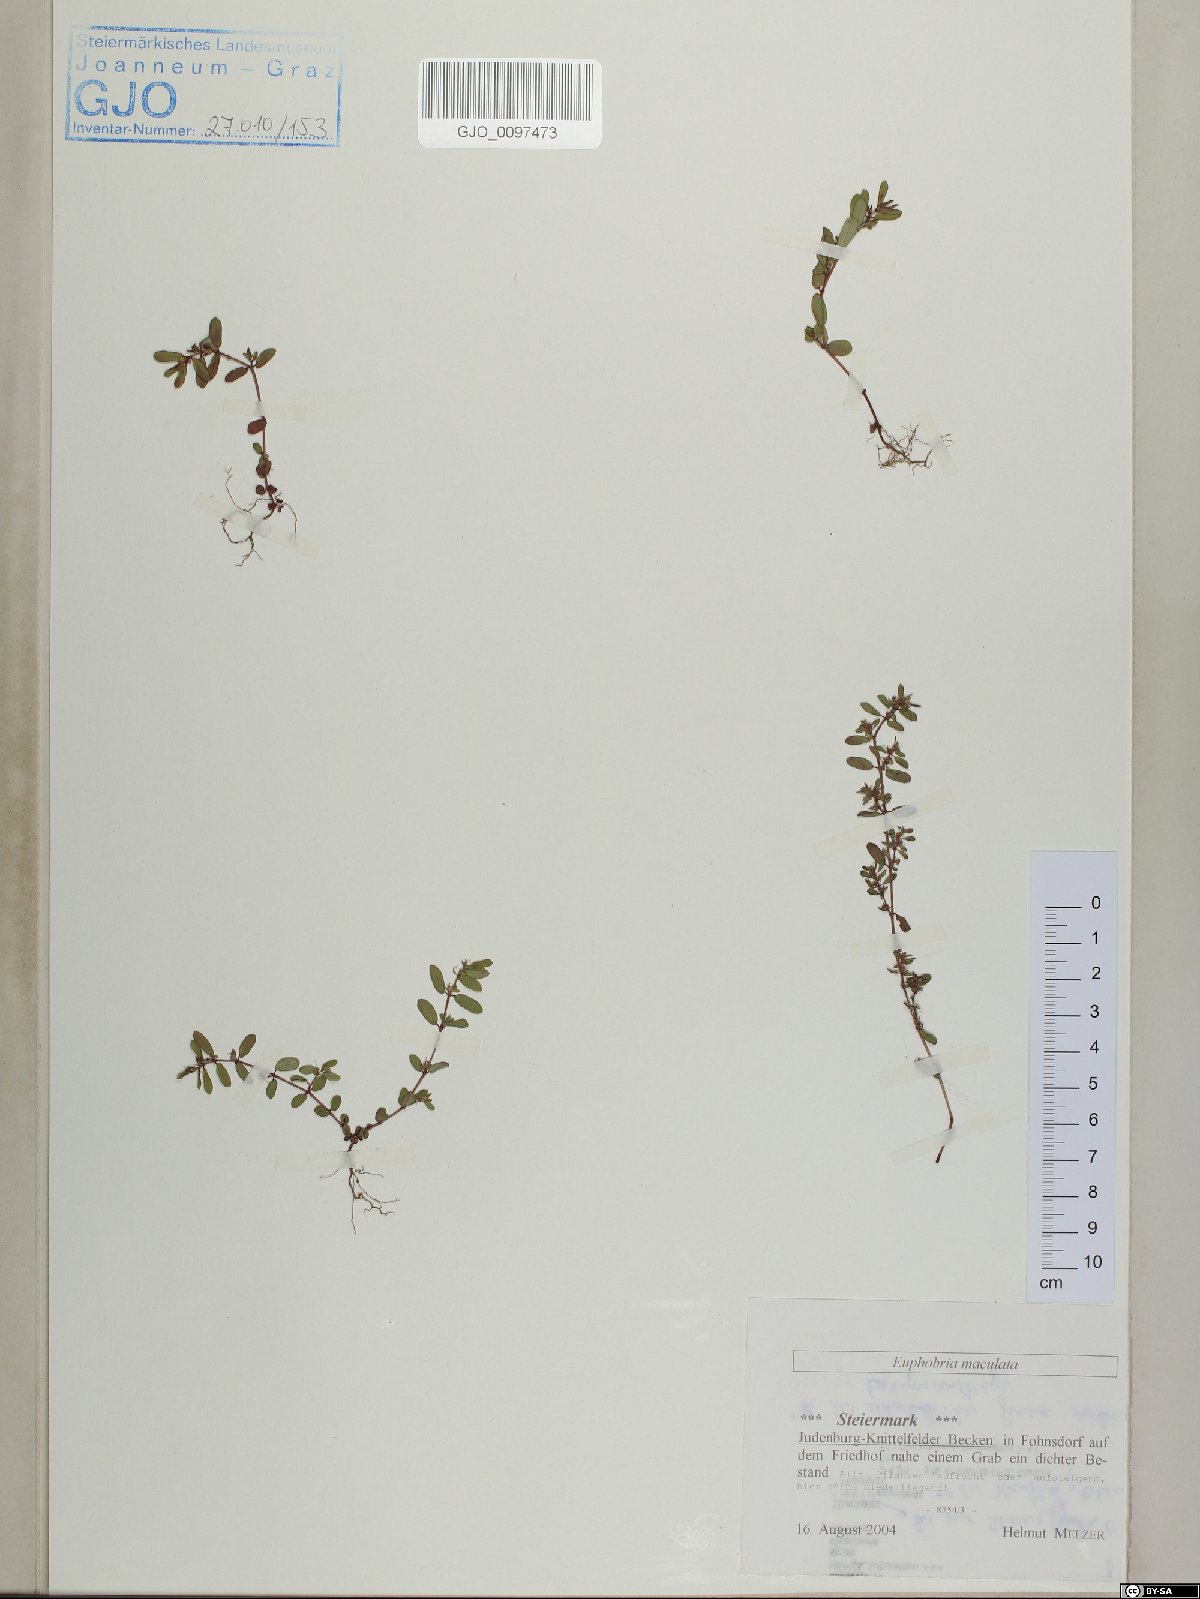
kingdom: Plantae
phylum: Tracheophyta
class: Magnoliopsida
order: Malpighiales
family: Euphorbiaceae
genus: Euphorbia
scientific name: Euphorbia maculata
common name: Spotted spurge
